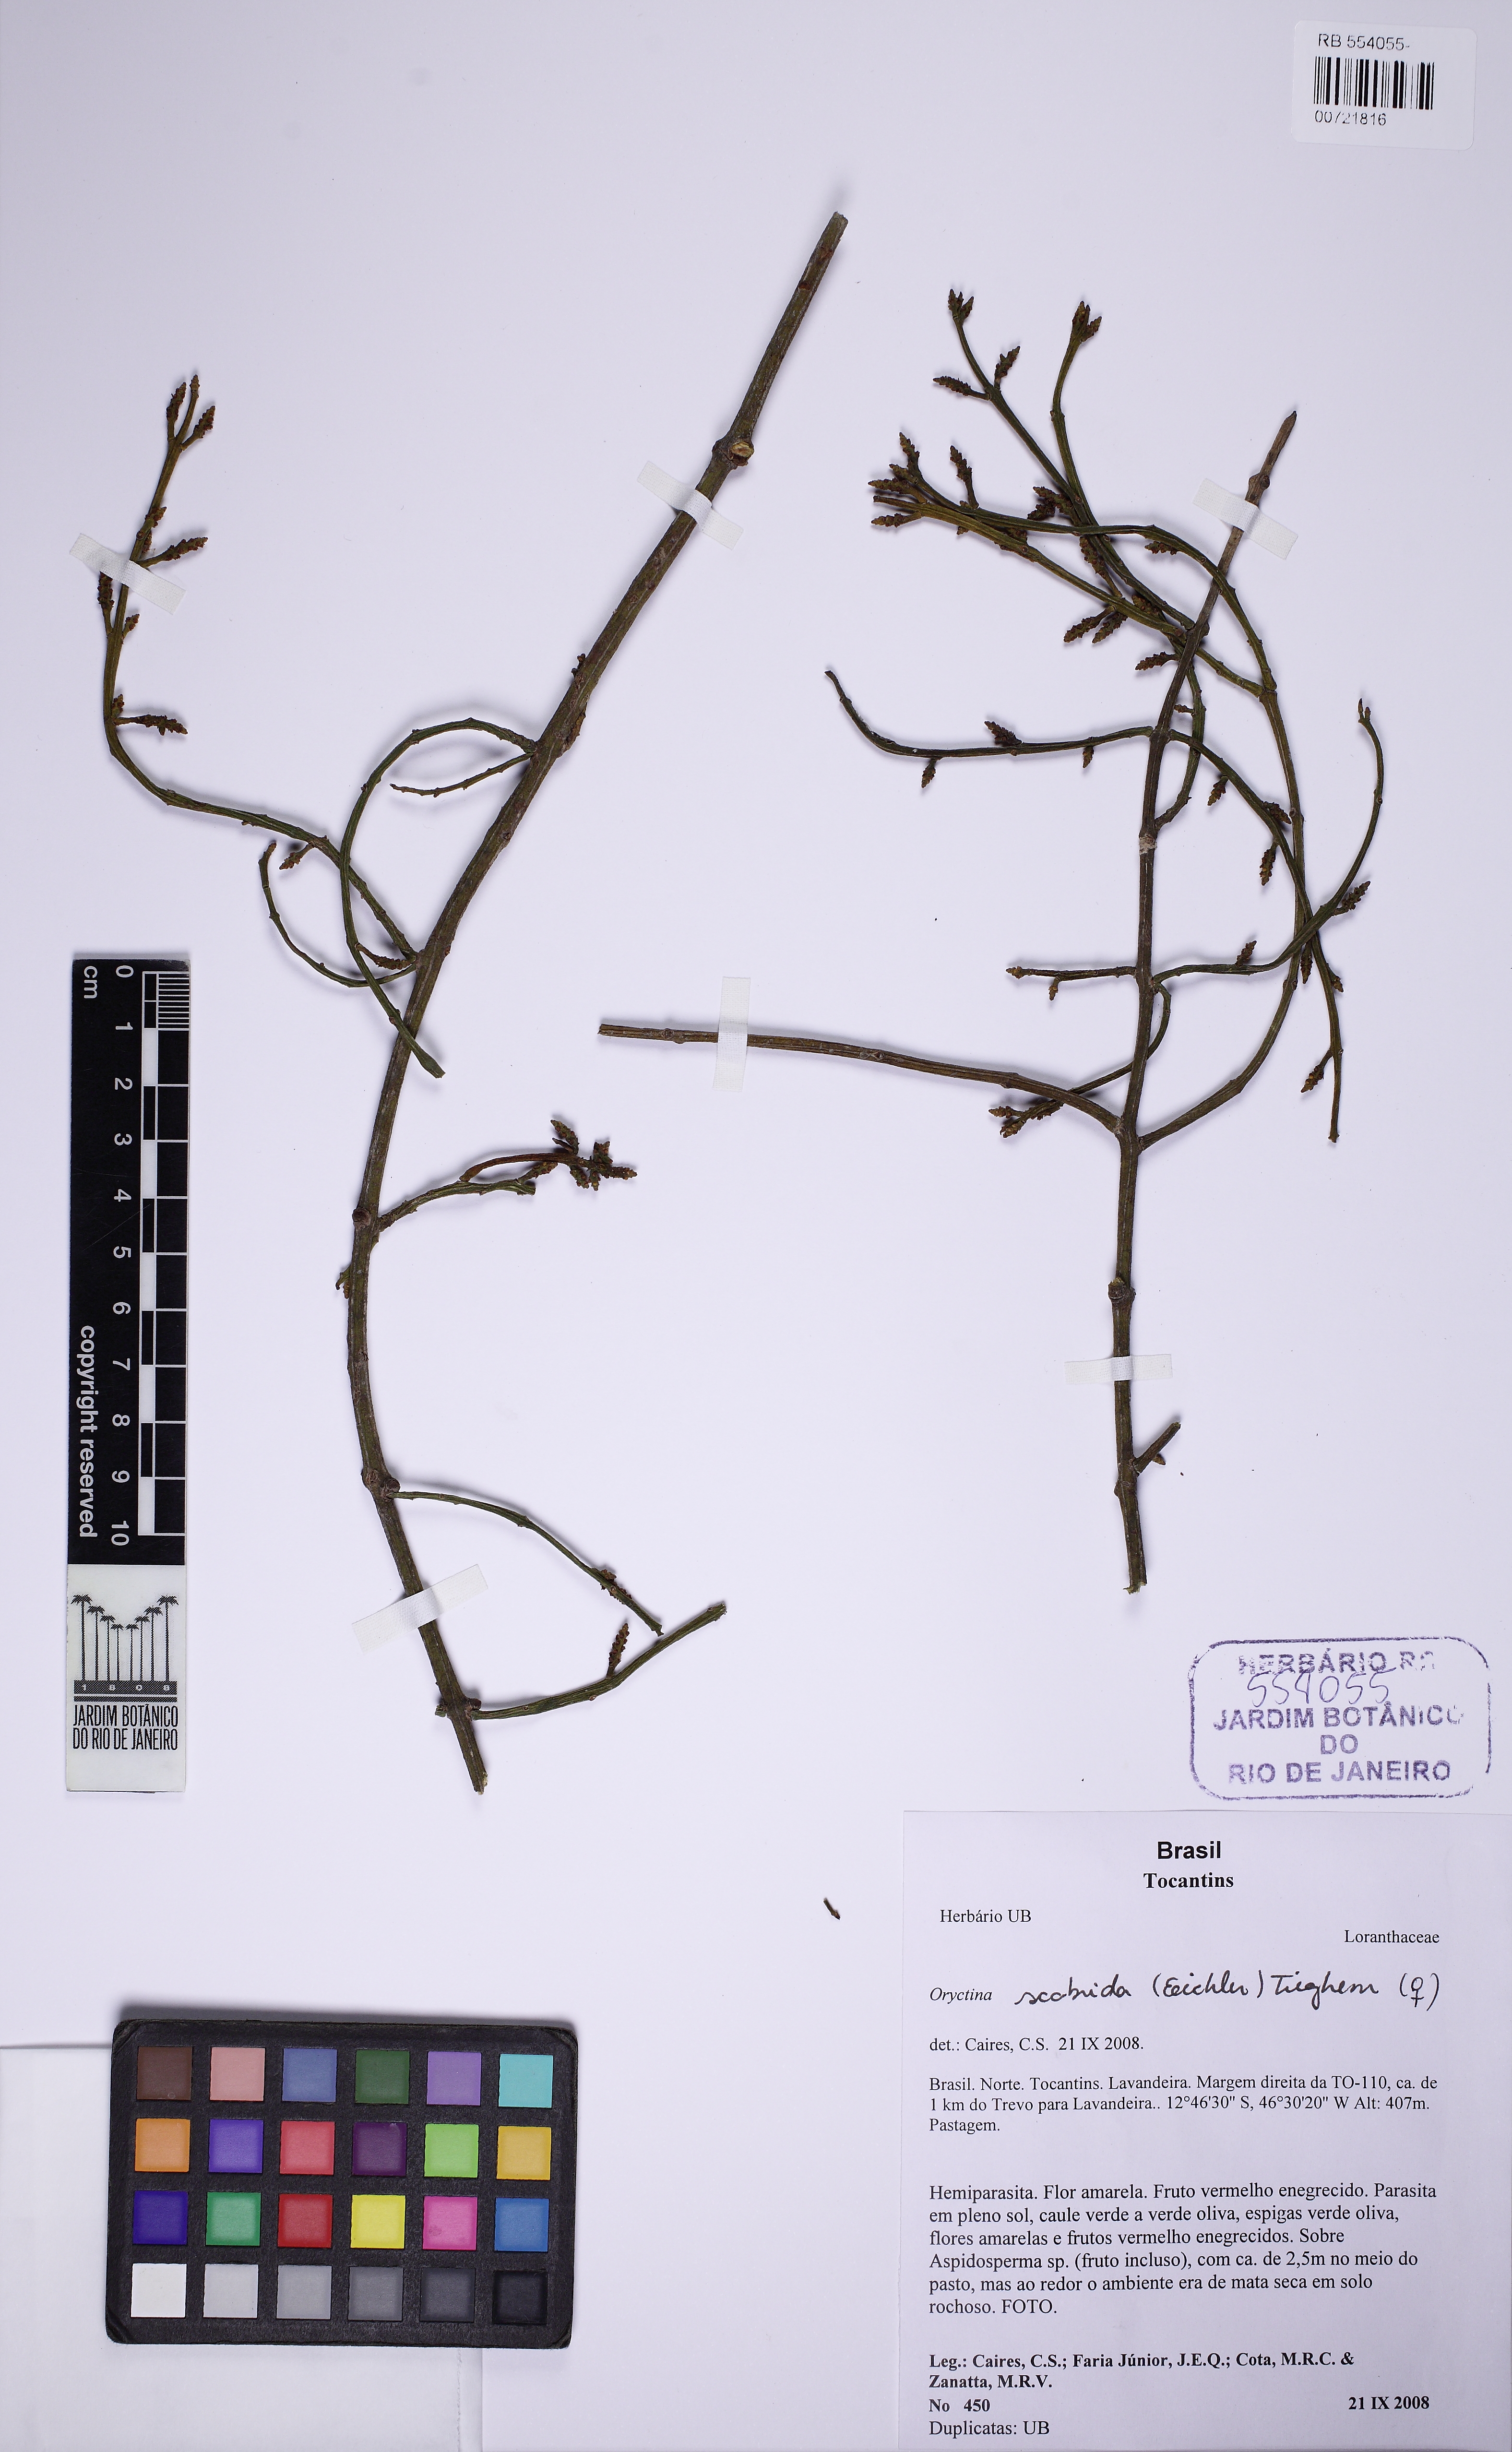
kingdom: Plantae
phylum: Tracheophyta
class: Magnoliopsida
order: Santalales
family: Loranthaceae
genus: Oryctina
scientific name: Oryctina scabrida
